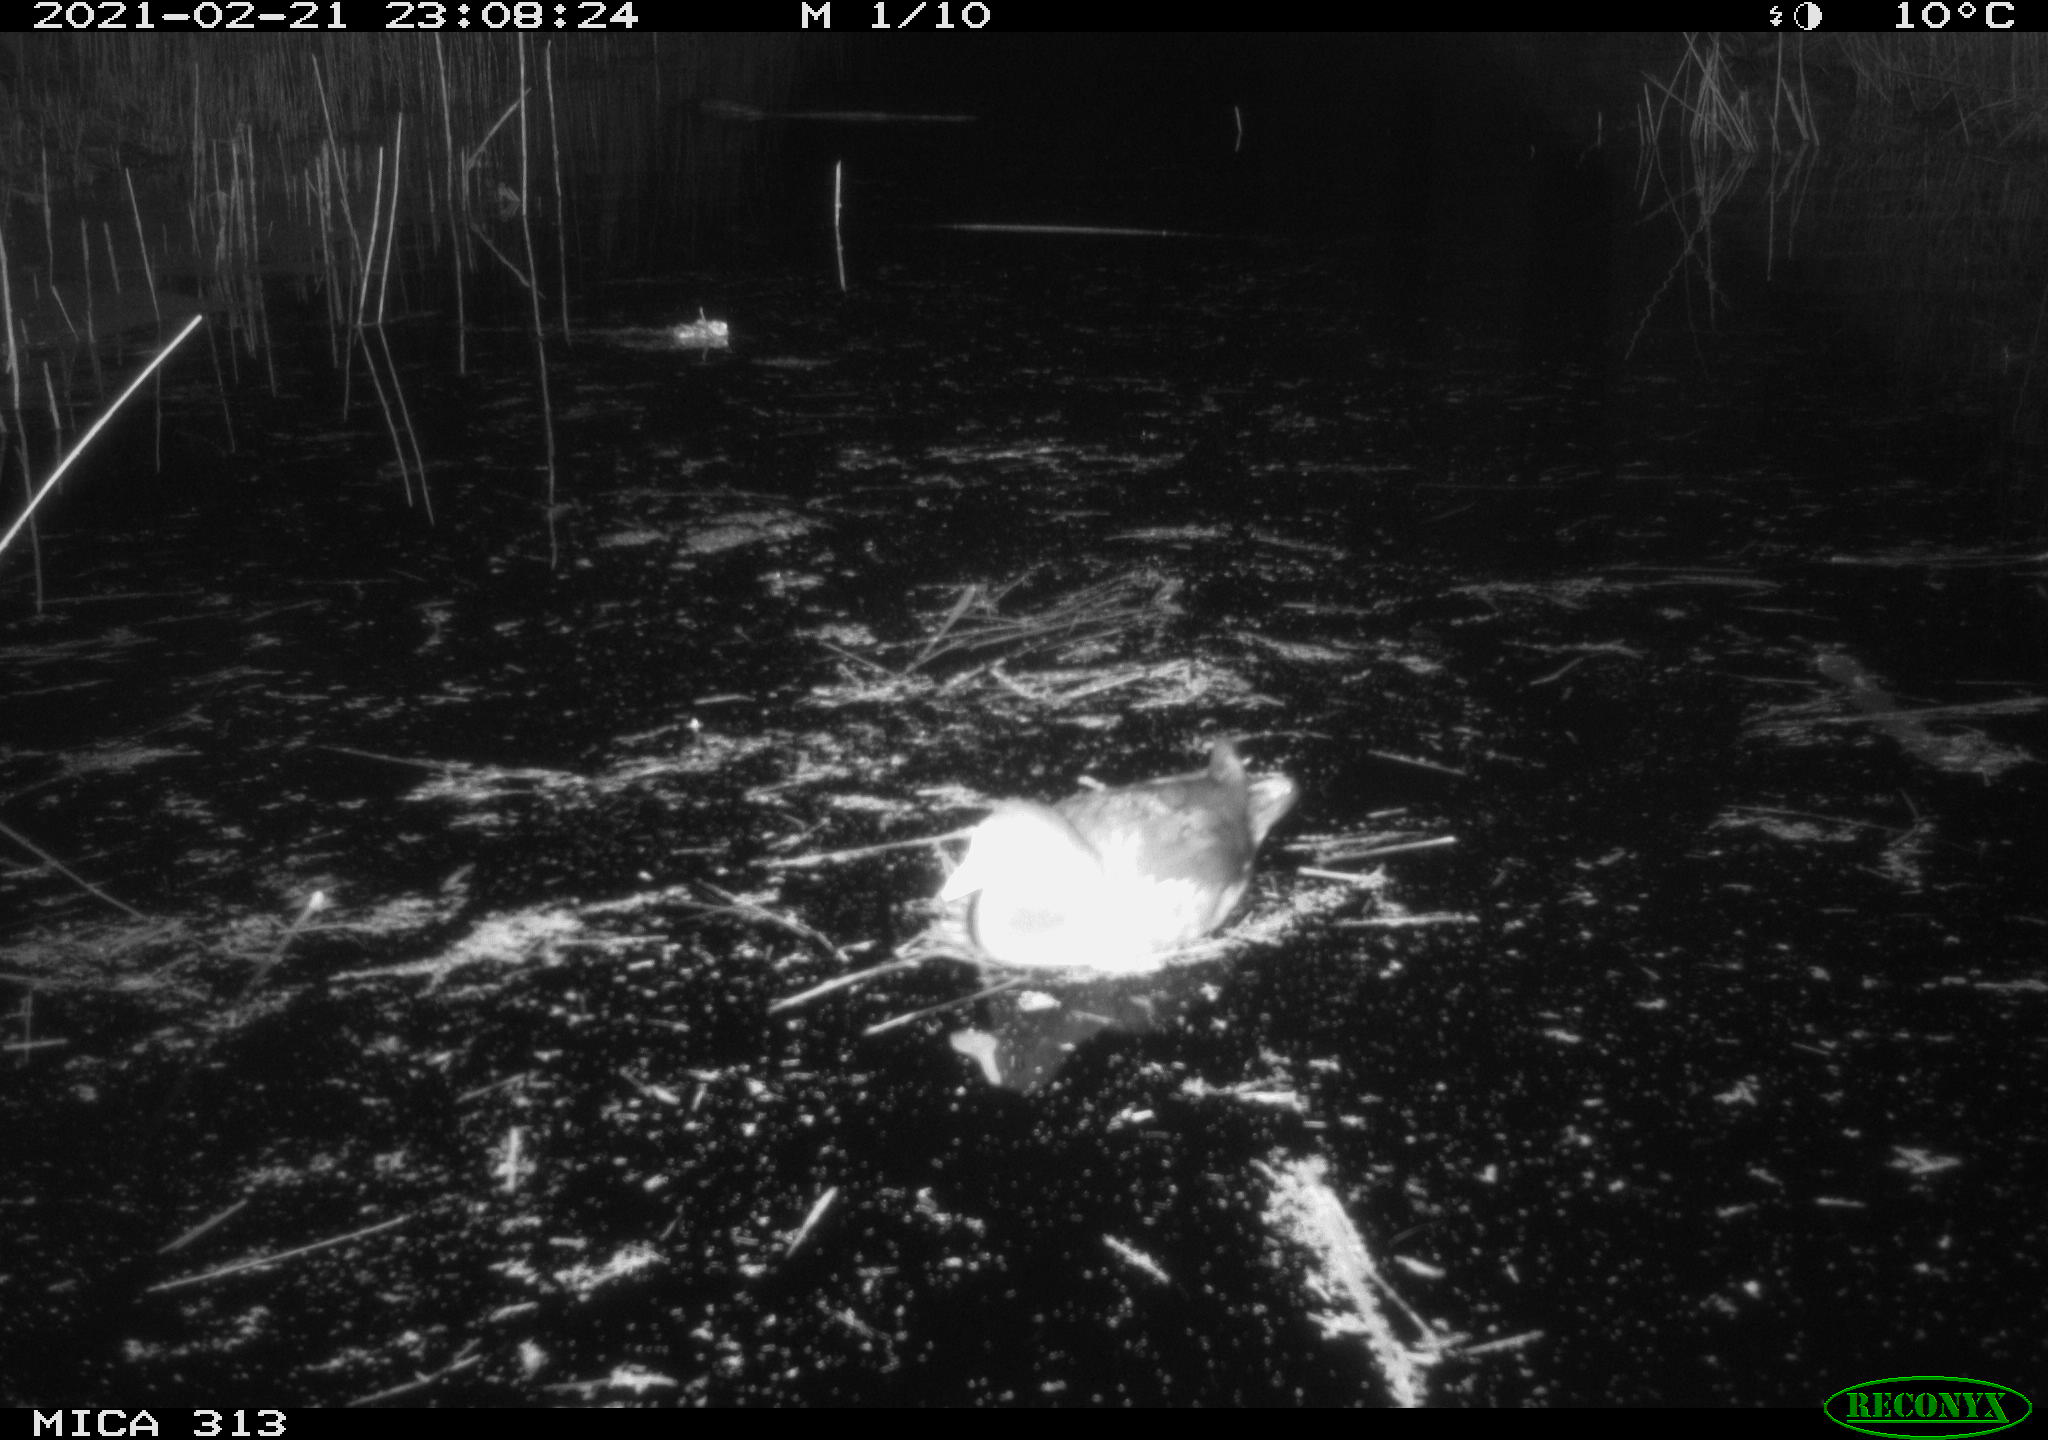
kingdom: Animalia
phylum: Chordata
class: Aves
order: Gruiformes
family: Rallidae
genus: Fulica
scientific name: Fulica atra
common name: Eurasian coot
